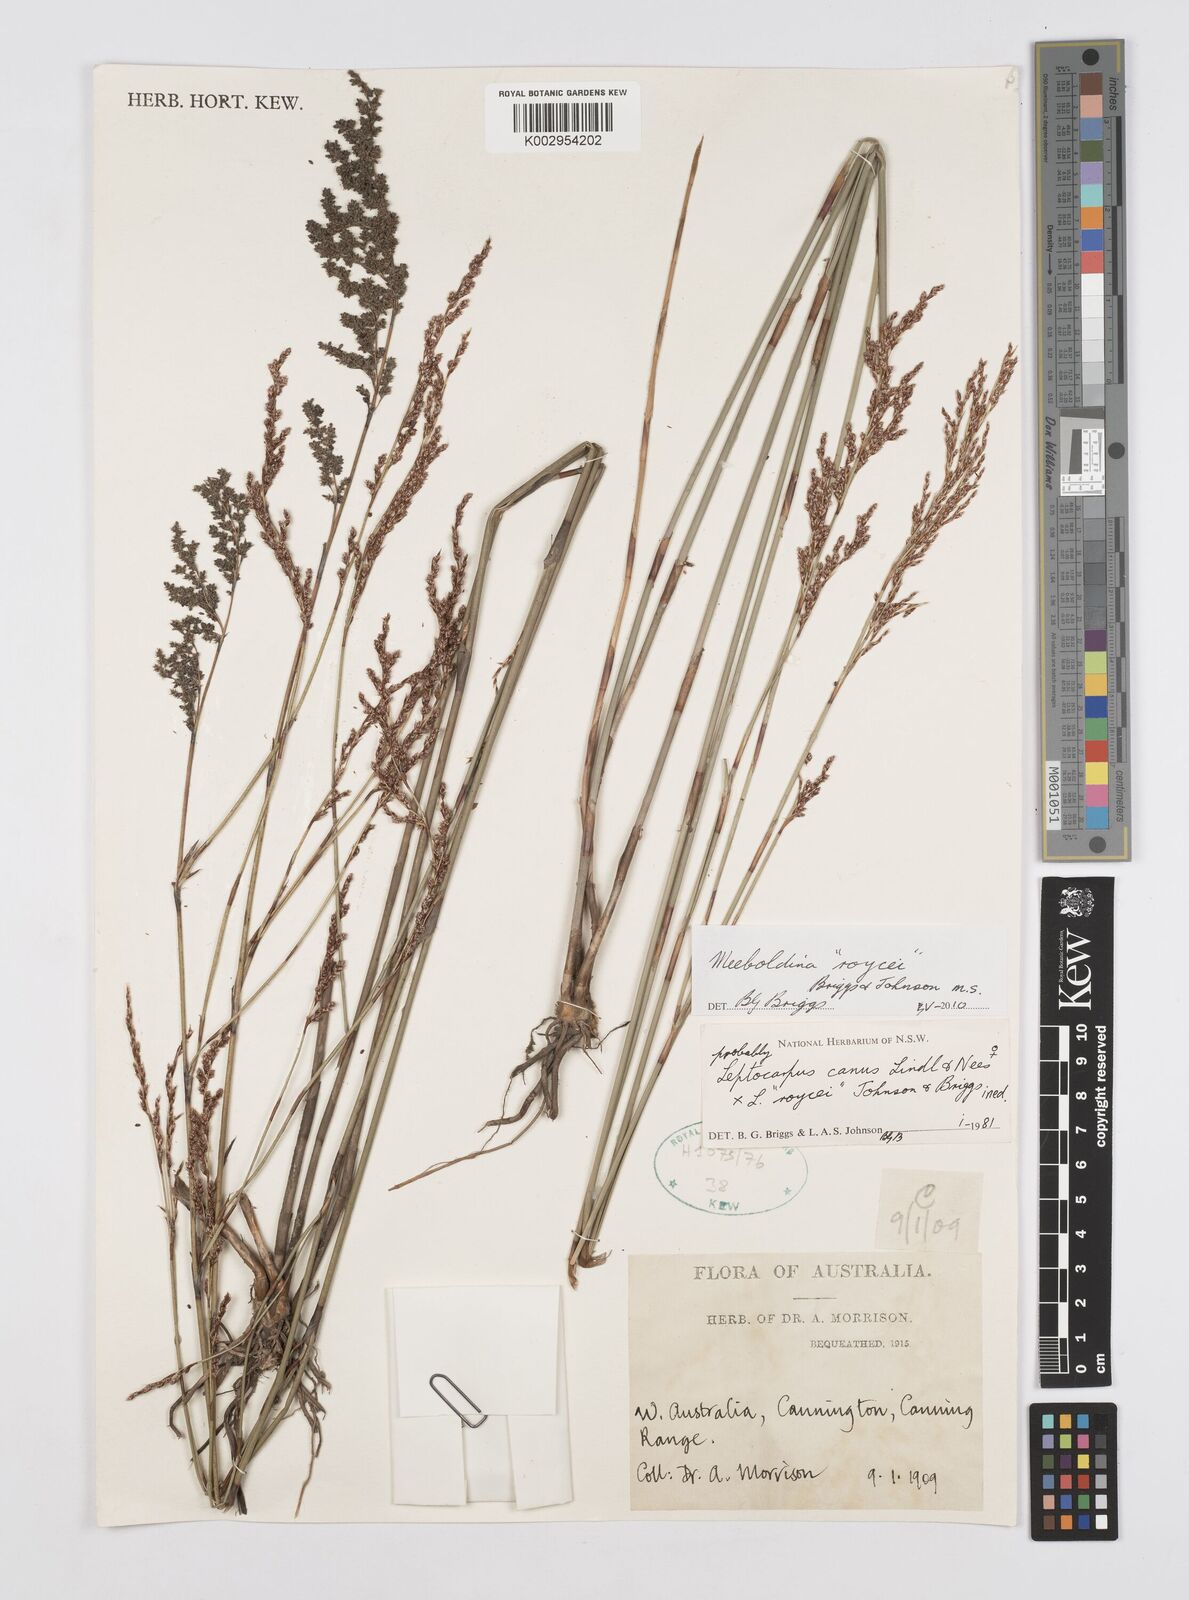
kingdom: Plantae
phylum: Tracheophyta
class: Liliopsida
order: Poales
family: Restionaceae
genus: Leptocarpus
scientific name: Leptocarpus roycei
